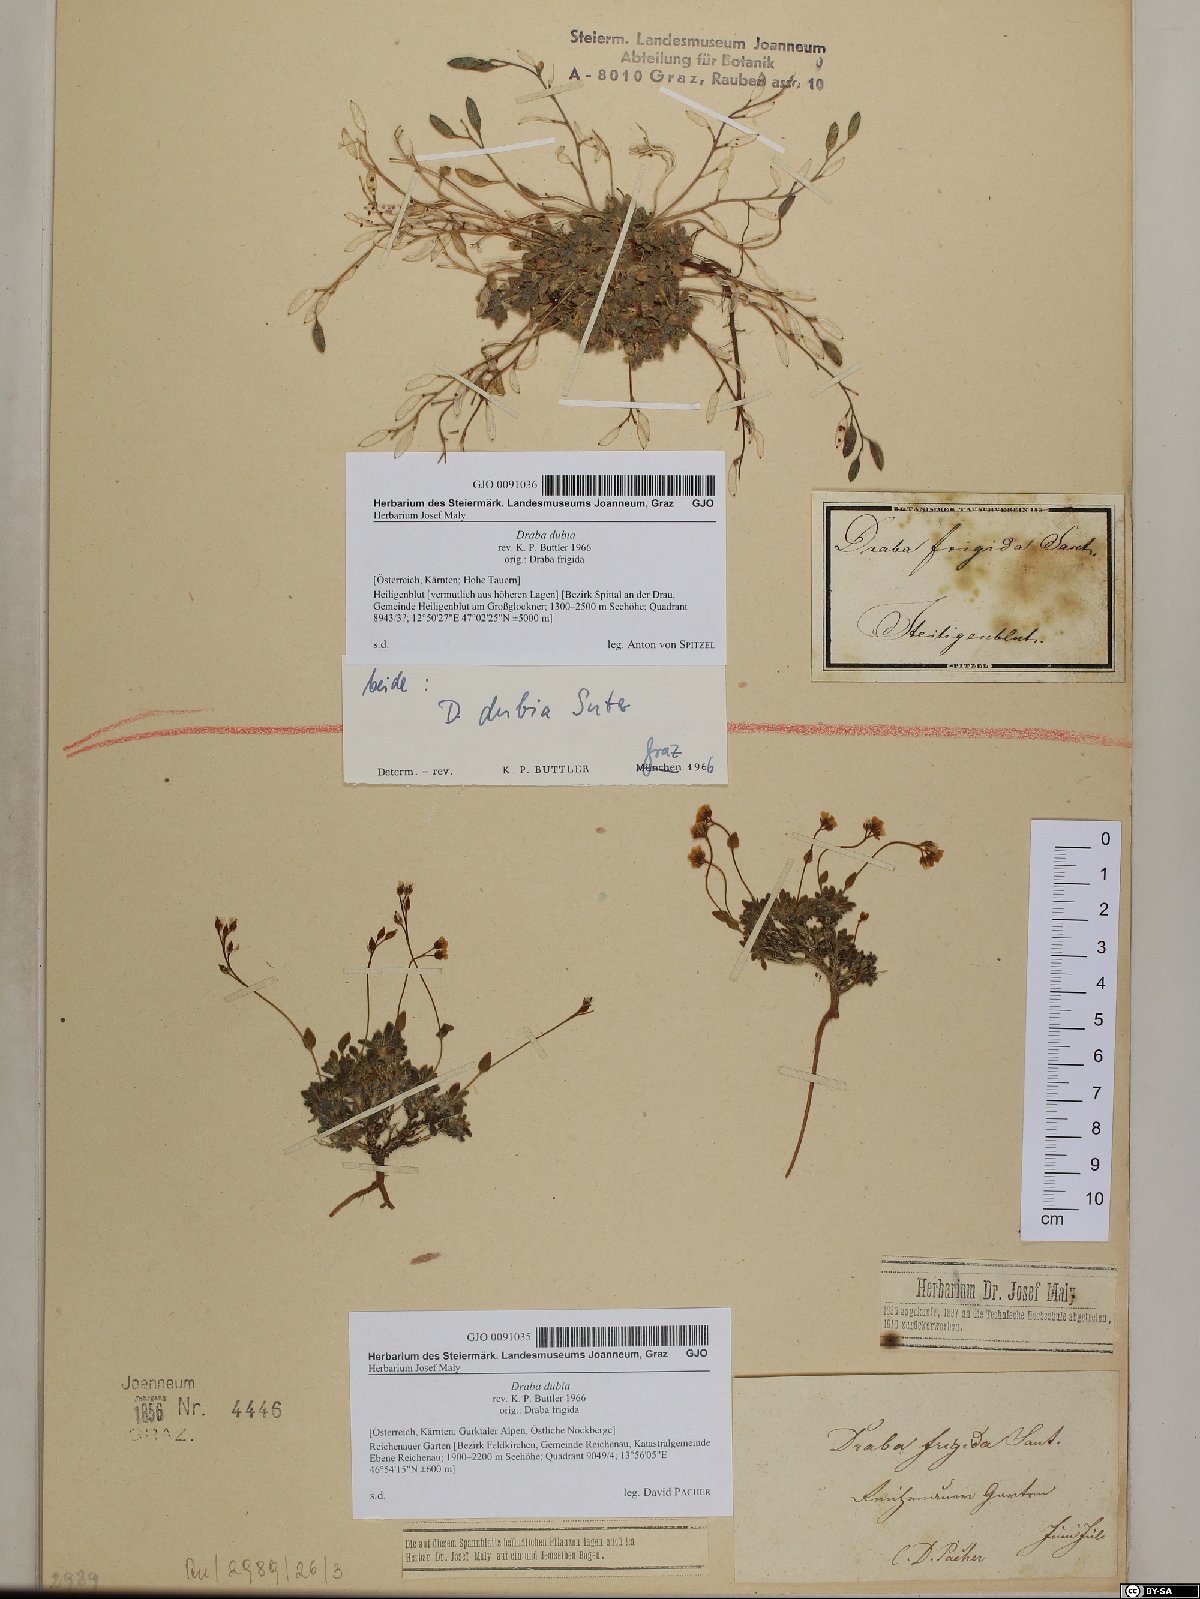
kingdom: Plantae
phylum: Tracheophyta
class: Magnoliopsida
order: Brassicales
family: Brassicaceae
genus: Draba
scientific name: Draba dubia
